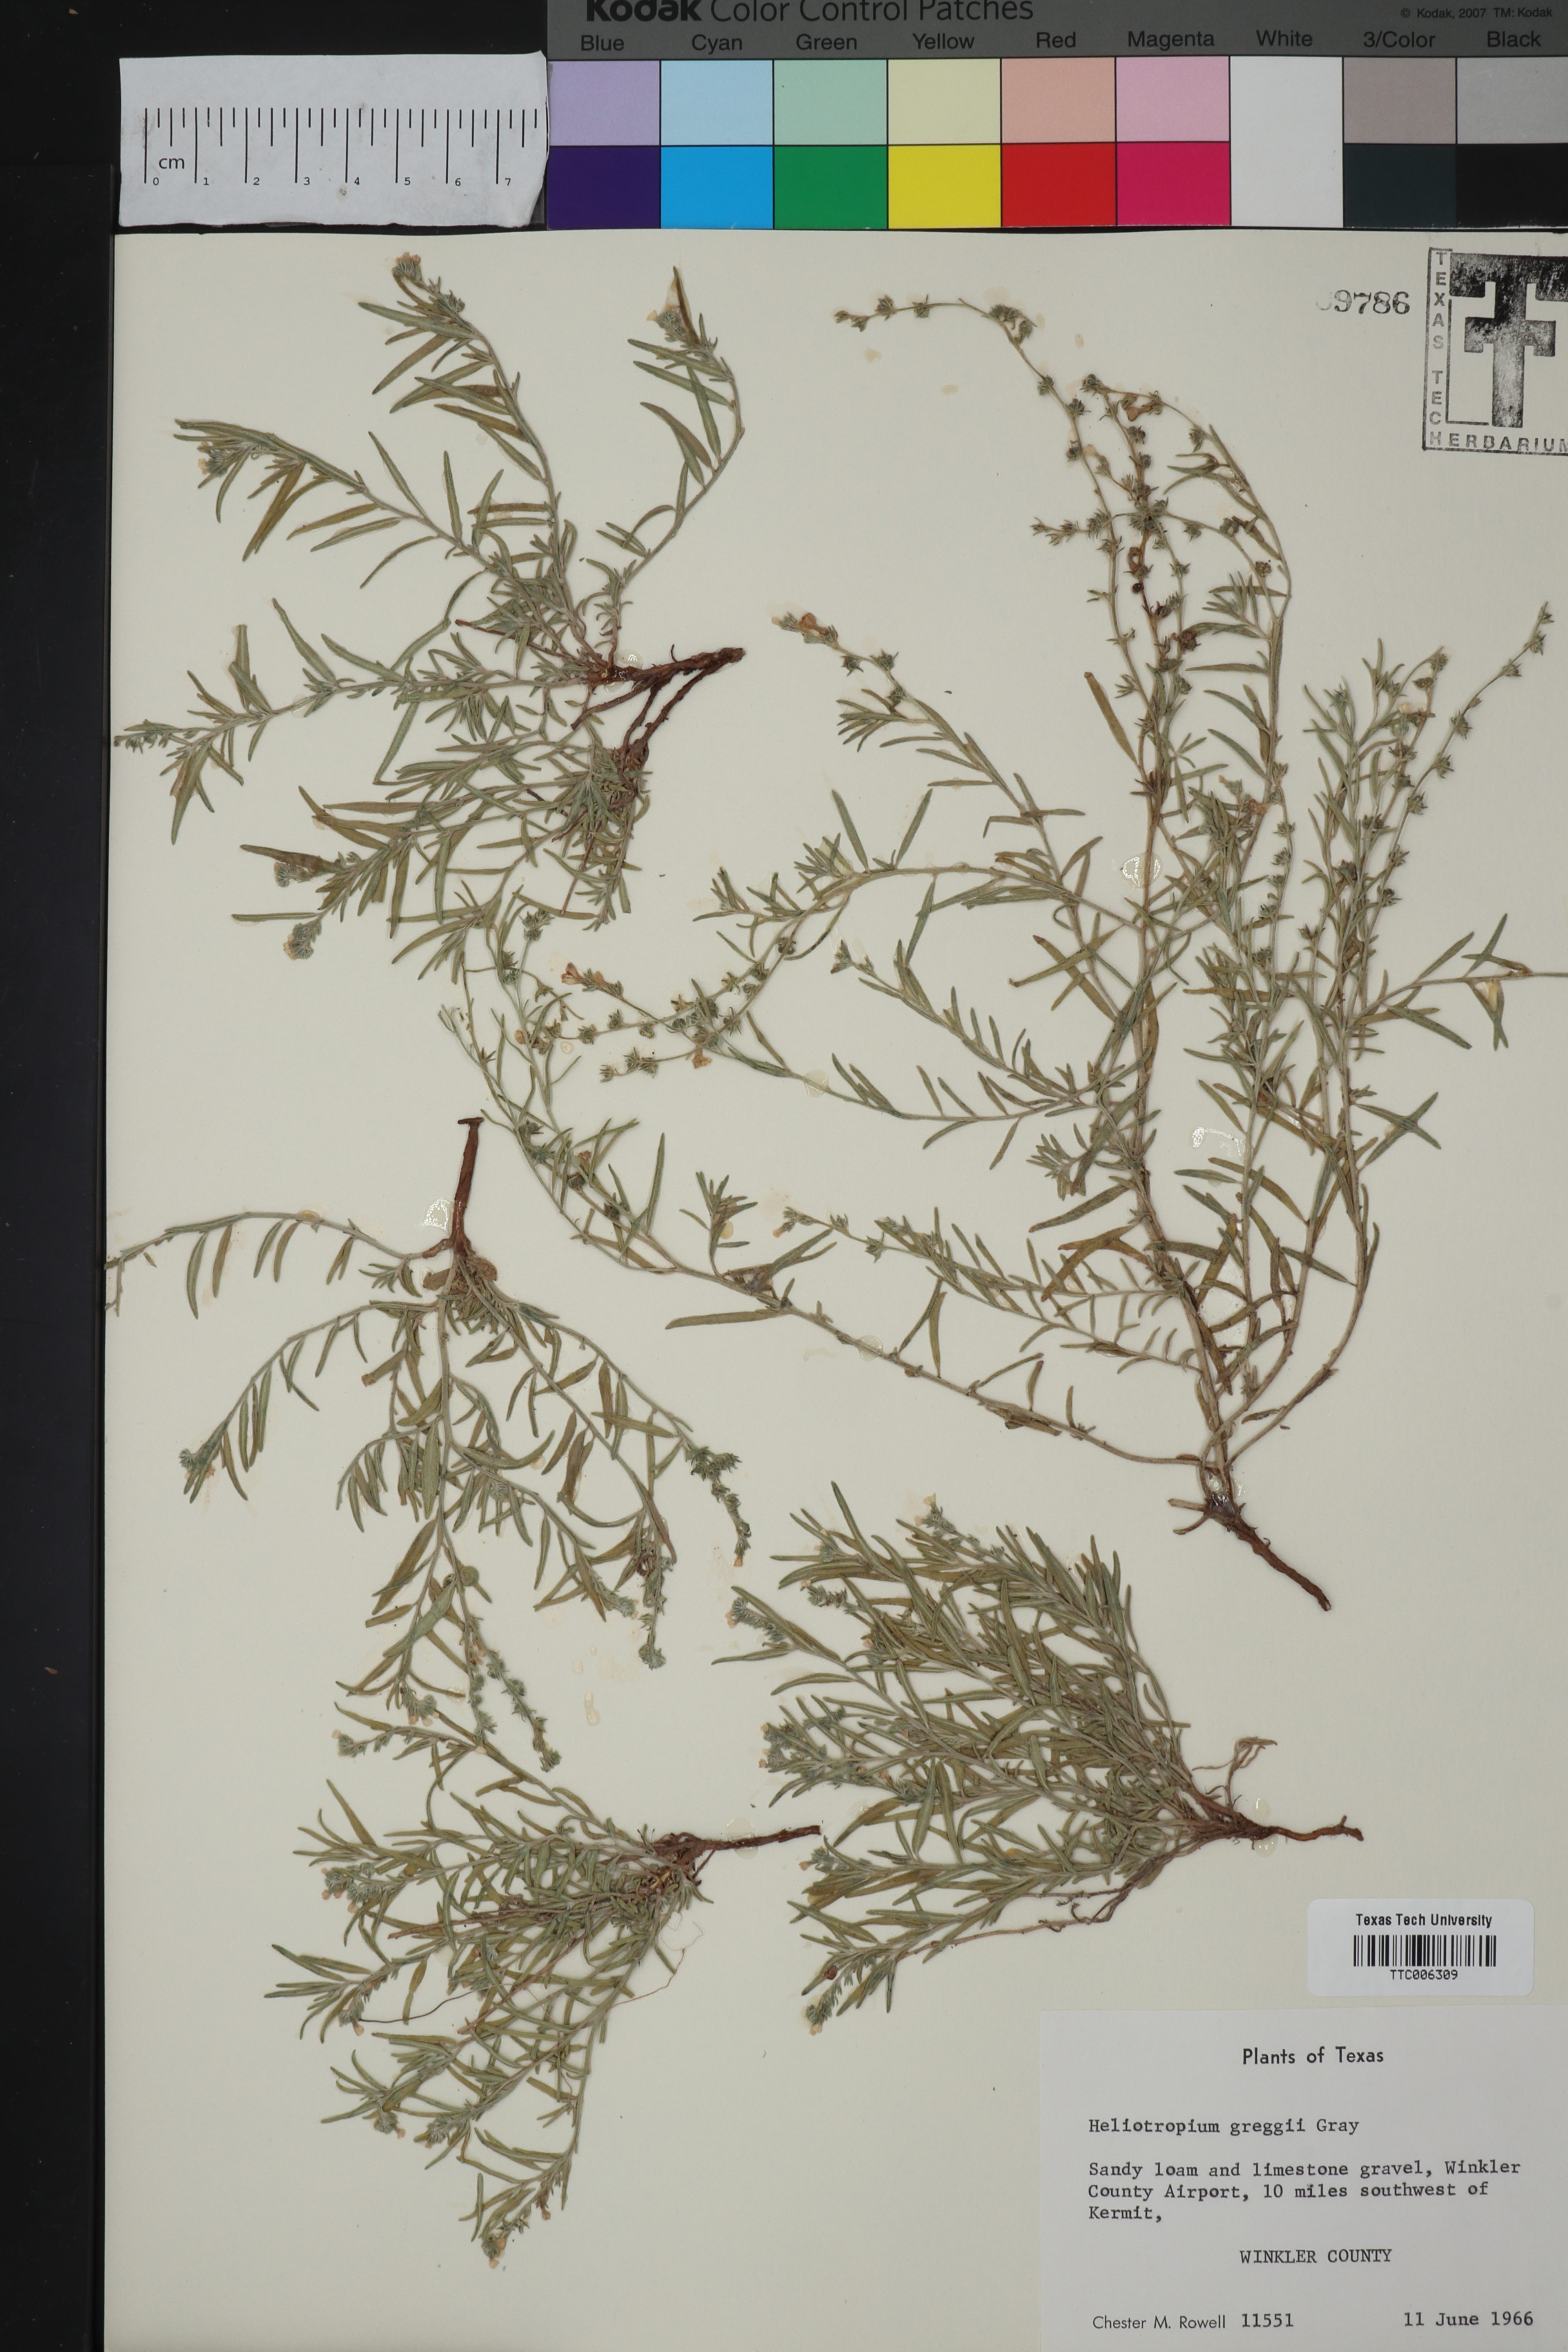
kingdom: Plantae
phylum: Tracheophyta
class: Magnoliopsida
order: Boraginales
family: Heliotropiaceae
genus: Euploca
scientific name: Euploca greggii
